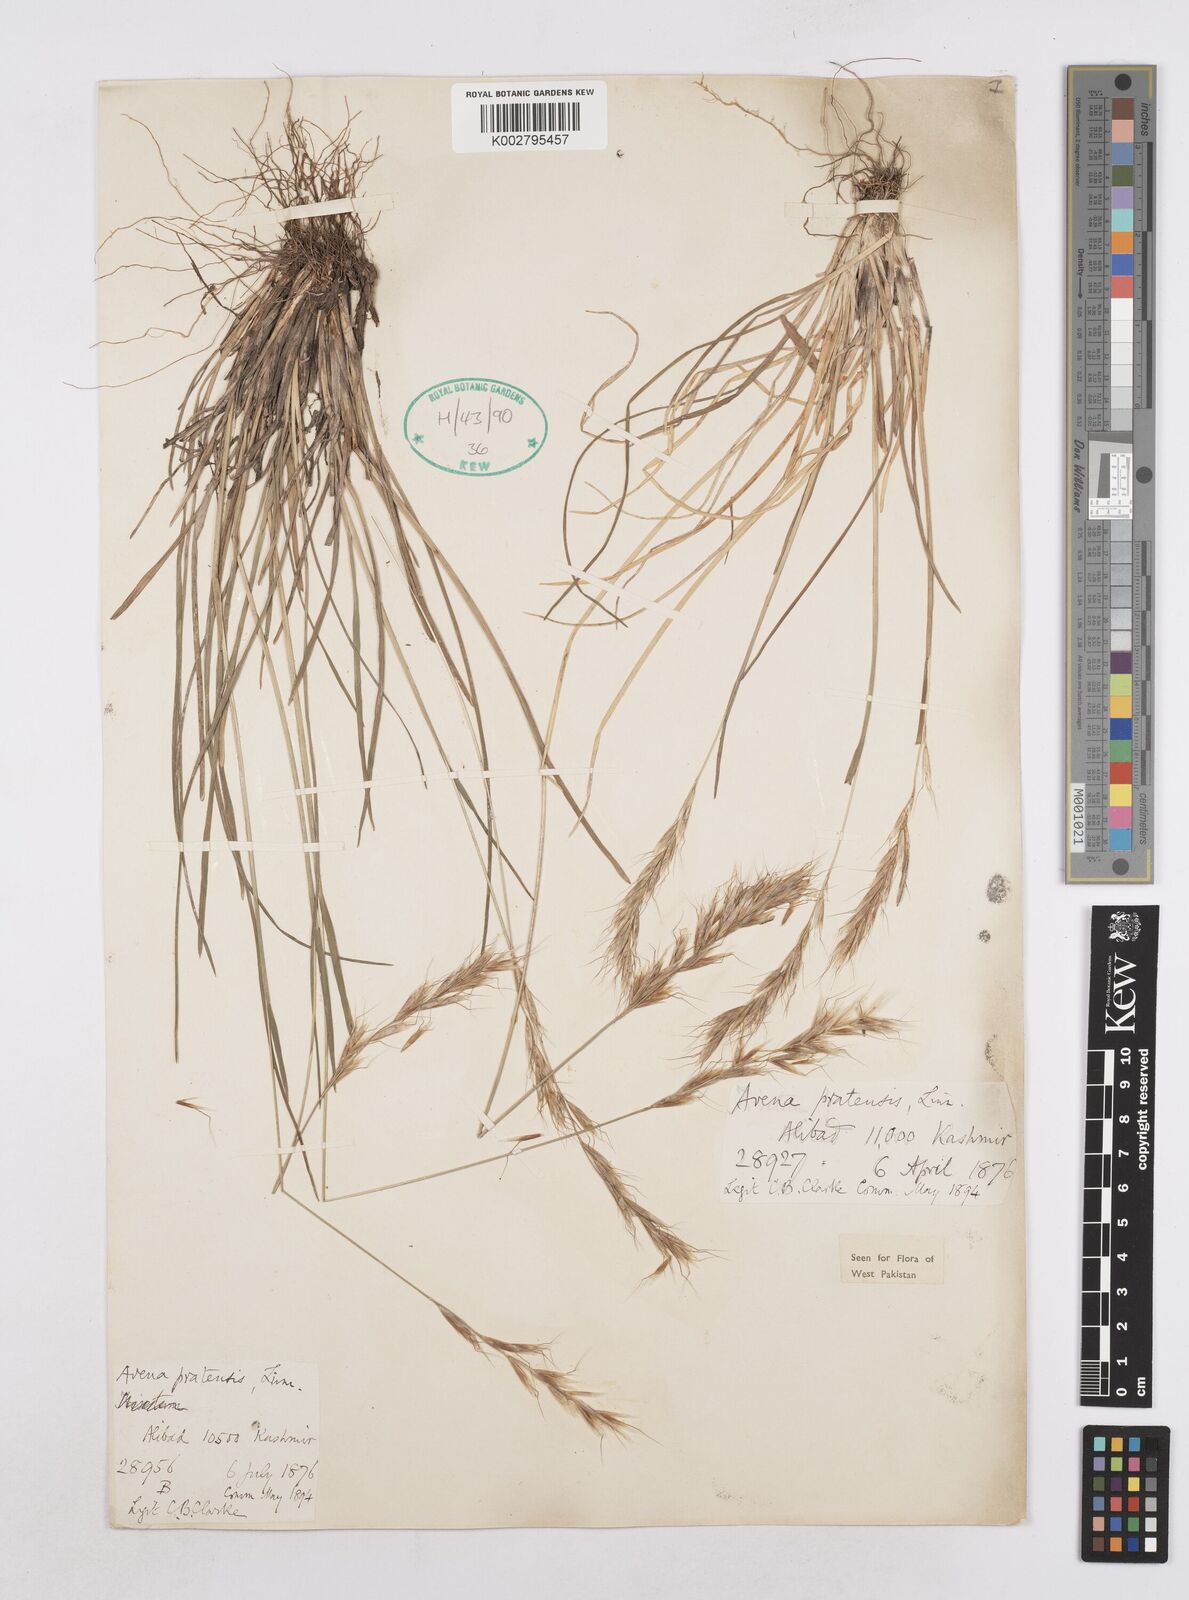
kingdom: Plantae
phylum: Tracheophyta
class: Liliopsida
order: Poales
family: Poaceae
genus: Helictochloa
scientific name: Helictochloa pratensis
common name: Meadow oat grass
